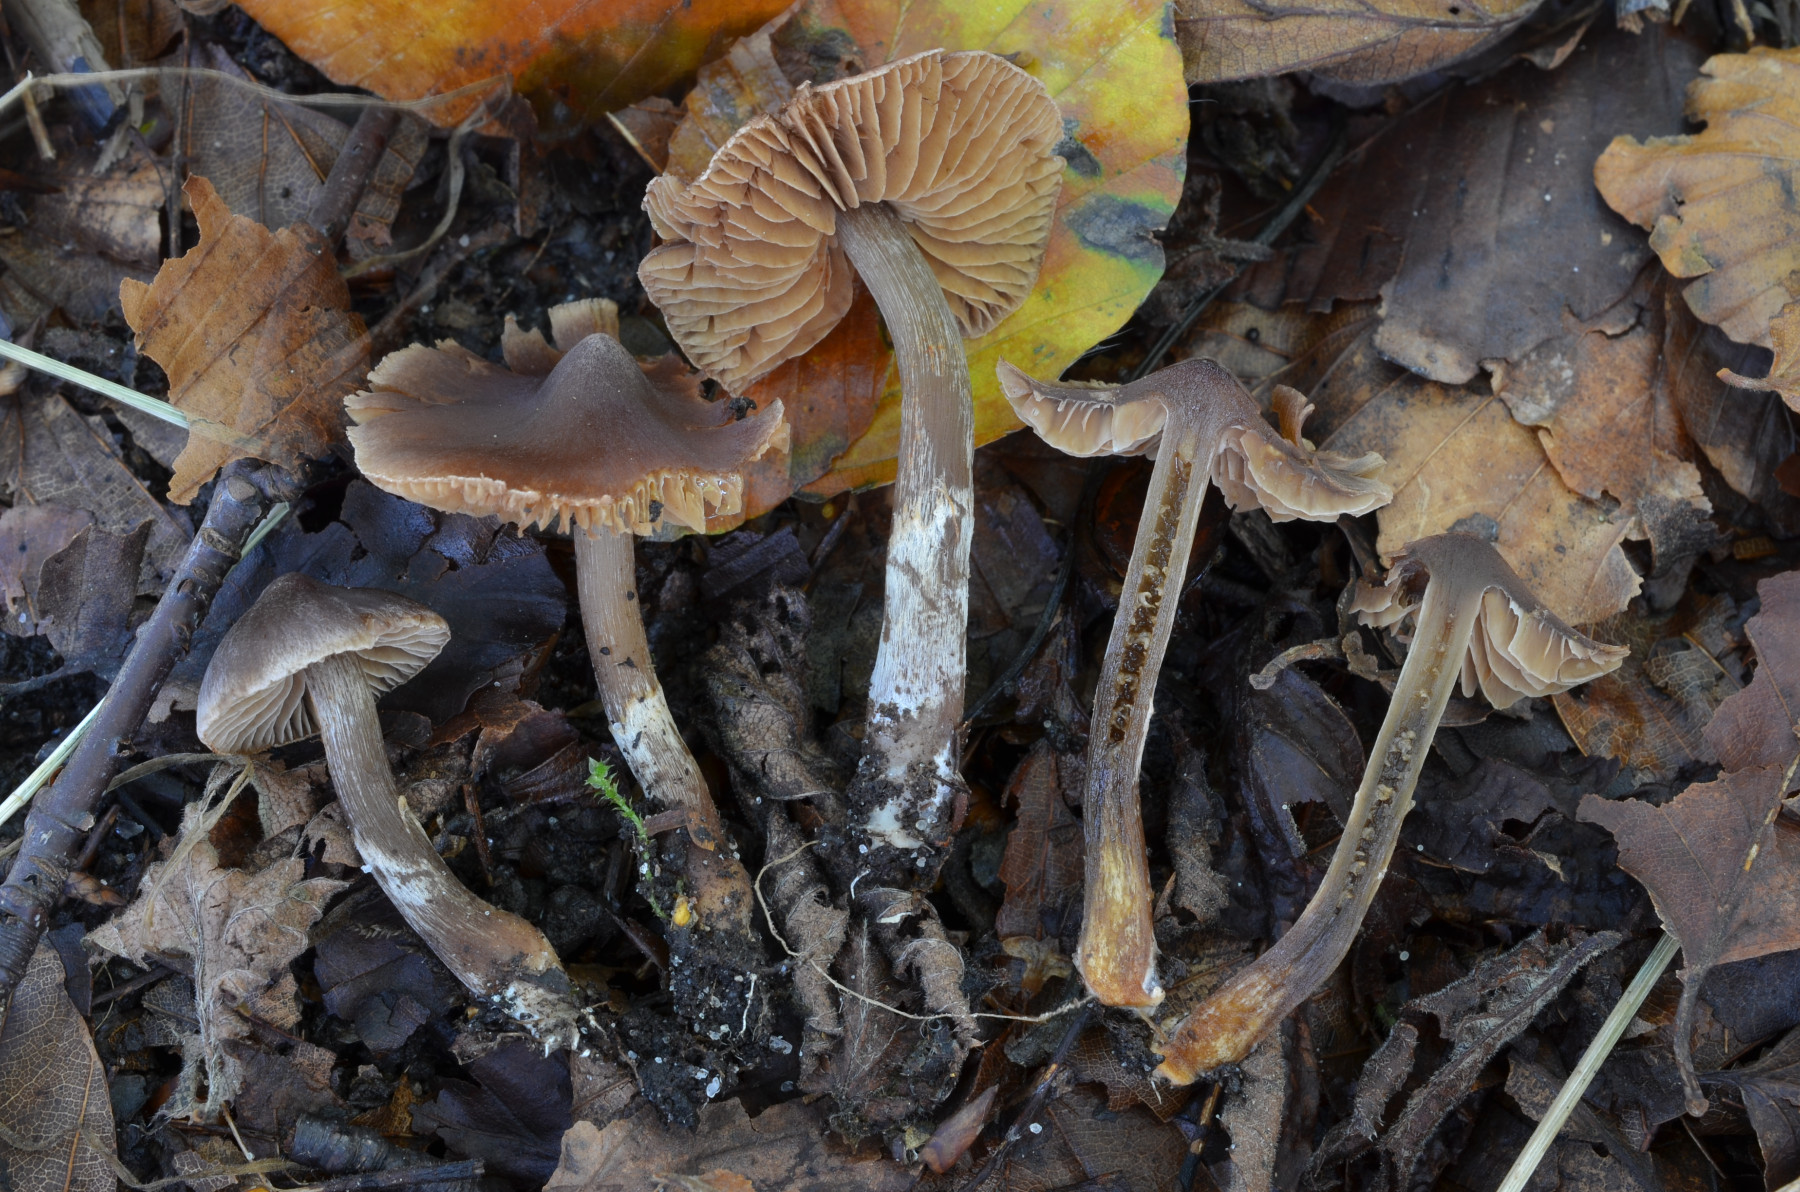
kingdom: Fungi
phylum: Basidiomycota
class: Agaricomycetes
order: Agaricales
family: Cortinariaceae
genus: Cortinarius
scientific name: Cortinarius
